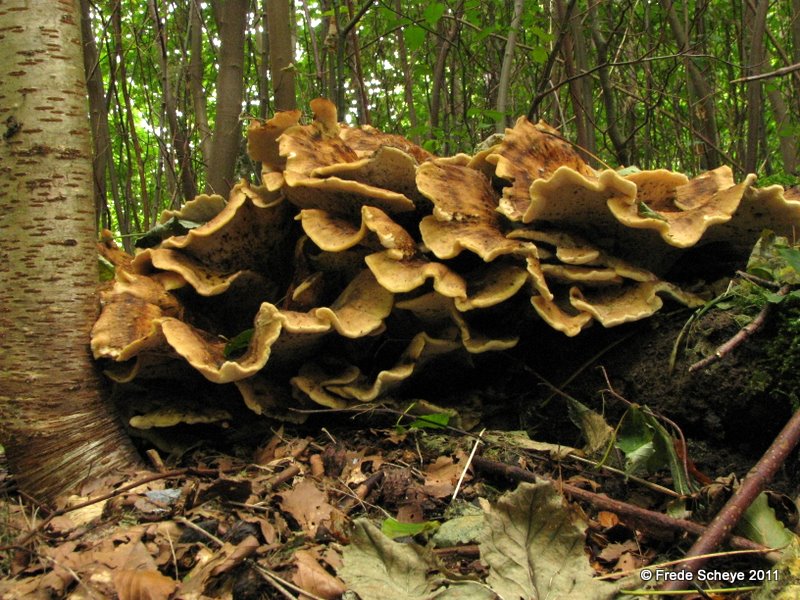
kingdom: Fungi
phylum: Basidiomycota
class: Agaricomycetes
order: Polyporales
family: Meripilaceae
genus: Meripilus
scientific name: Meripilus giganteus
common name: kæmpeporesvamp
